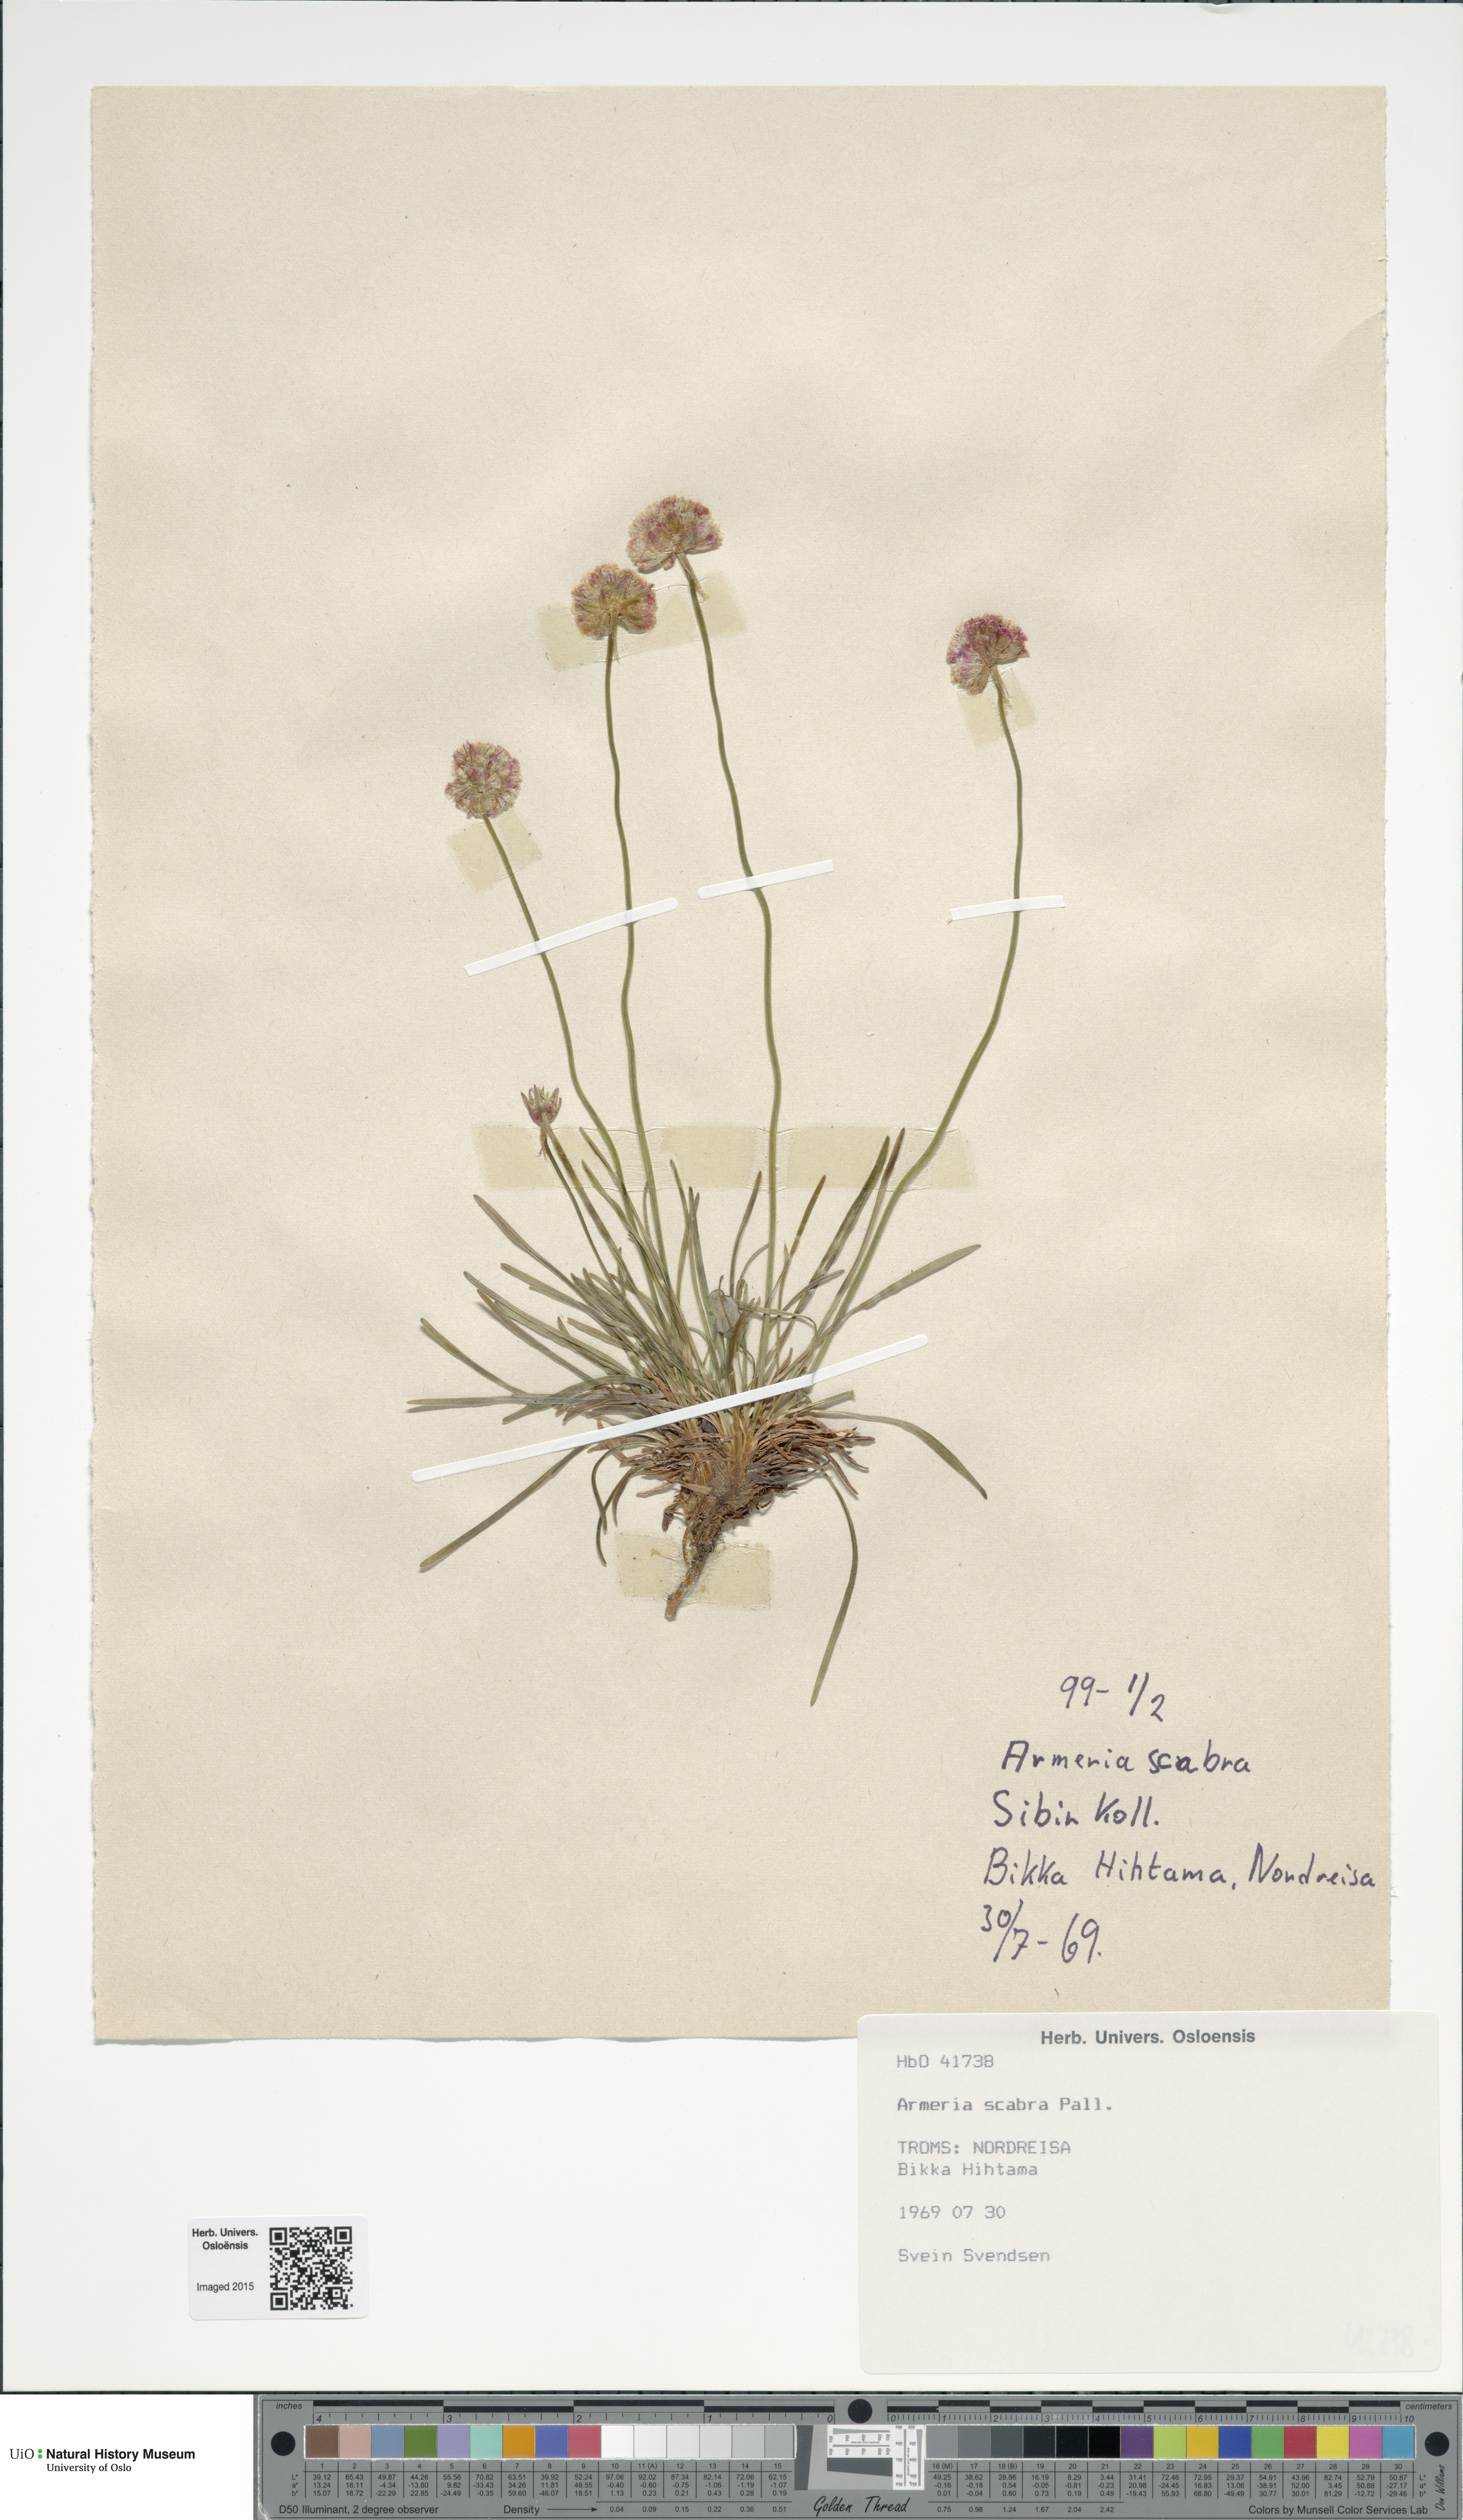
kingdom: Plantae
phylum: Tracheophyta
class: Magnoliopsida
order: Caryophyllales
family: Plumbaginaceae
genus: Armeria
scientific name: Armeria maritima
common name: Thrift
